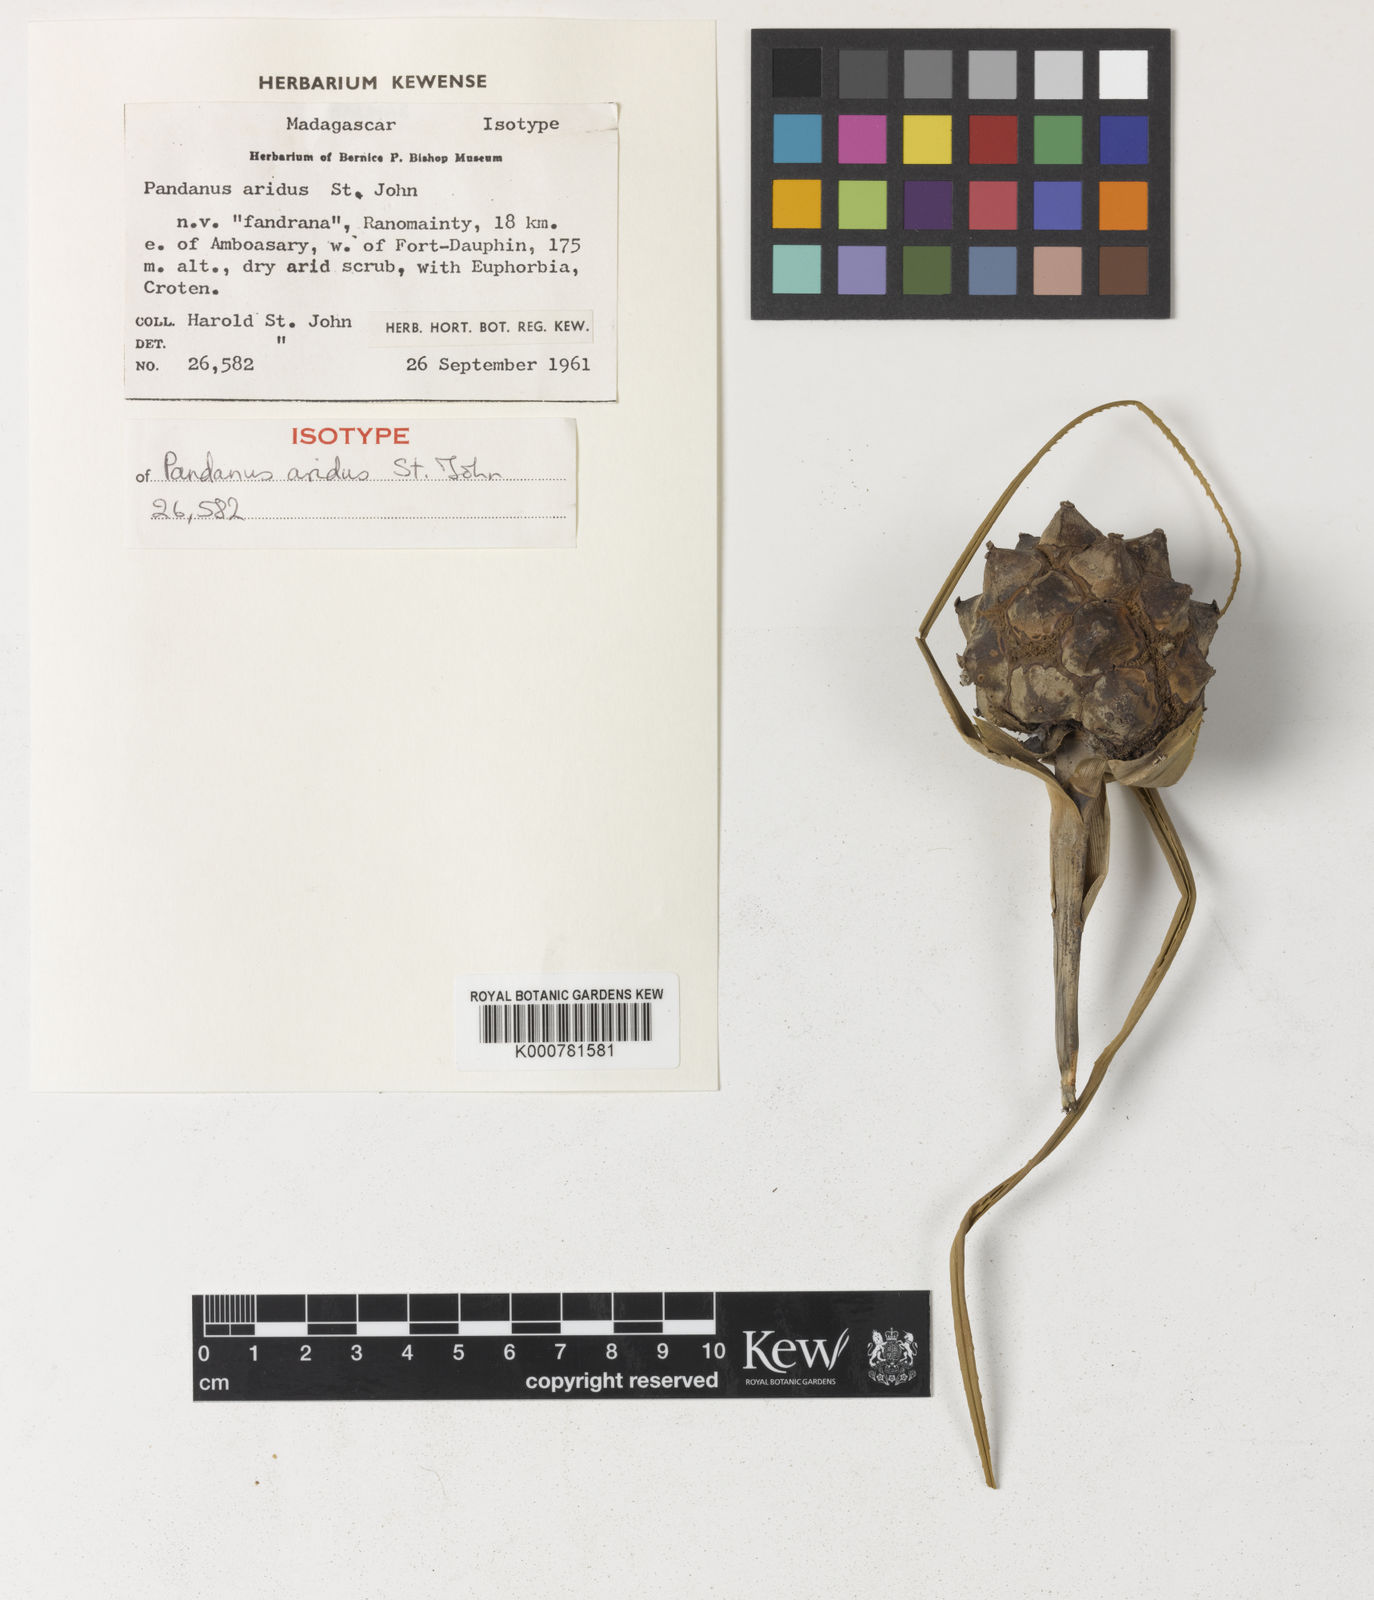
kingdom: Plantae
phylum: Tracheophyta
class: Liliopsida
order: Pandanales
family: Pandanaceae
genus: Pandanus
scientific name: Pandanus aridus
